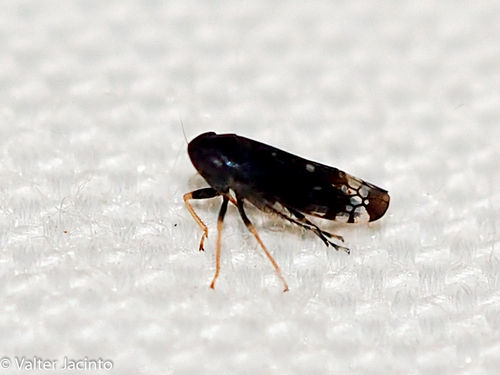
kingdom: Animalia
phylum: Arthropoda
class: Insecta
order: Hemiptera
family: Cicadellidae
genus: Neoaliturus
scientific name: Neoaliturus fenestratus
